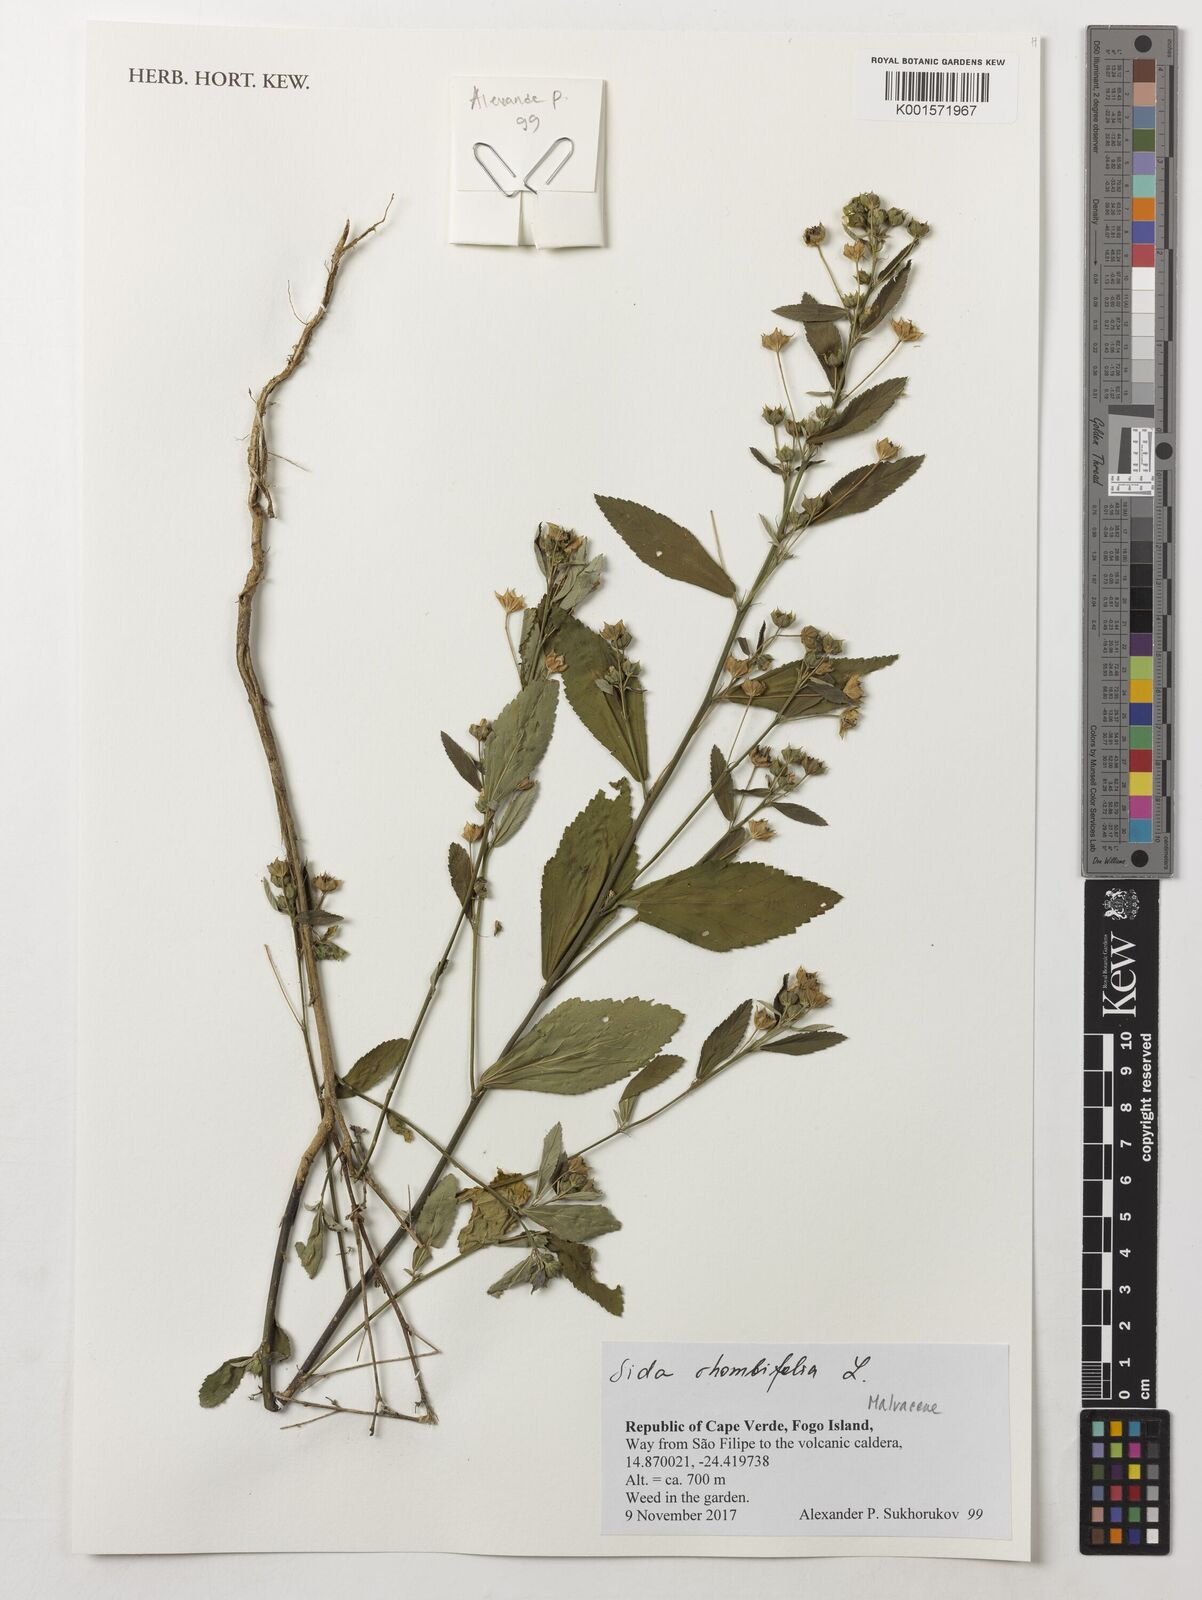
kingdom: Plantae
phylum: Tracheophyta
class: Magnoliopsida
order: Malvales
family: Malvaceae
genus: Sida
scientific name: Sida rhombifolia
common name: Queensland-hemp
